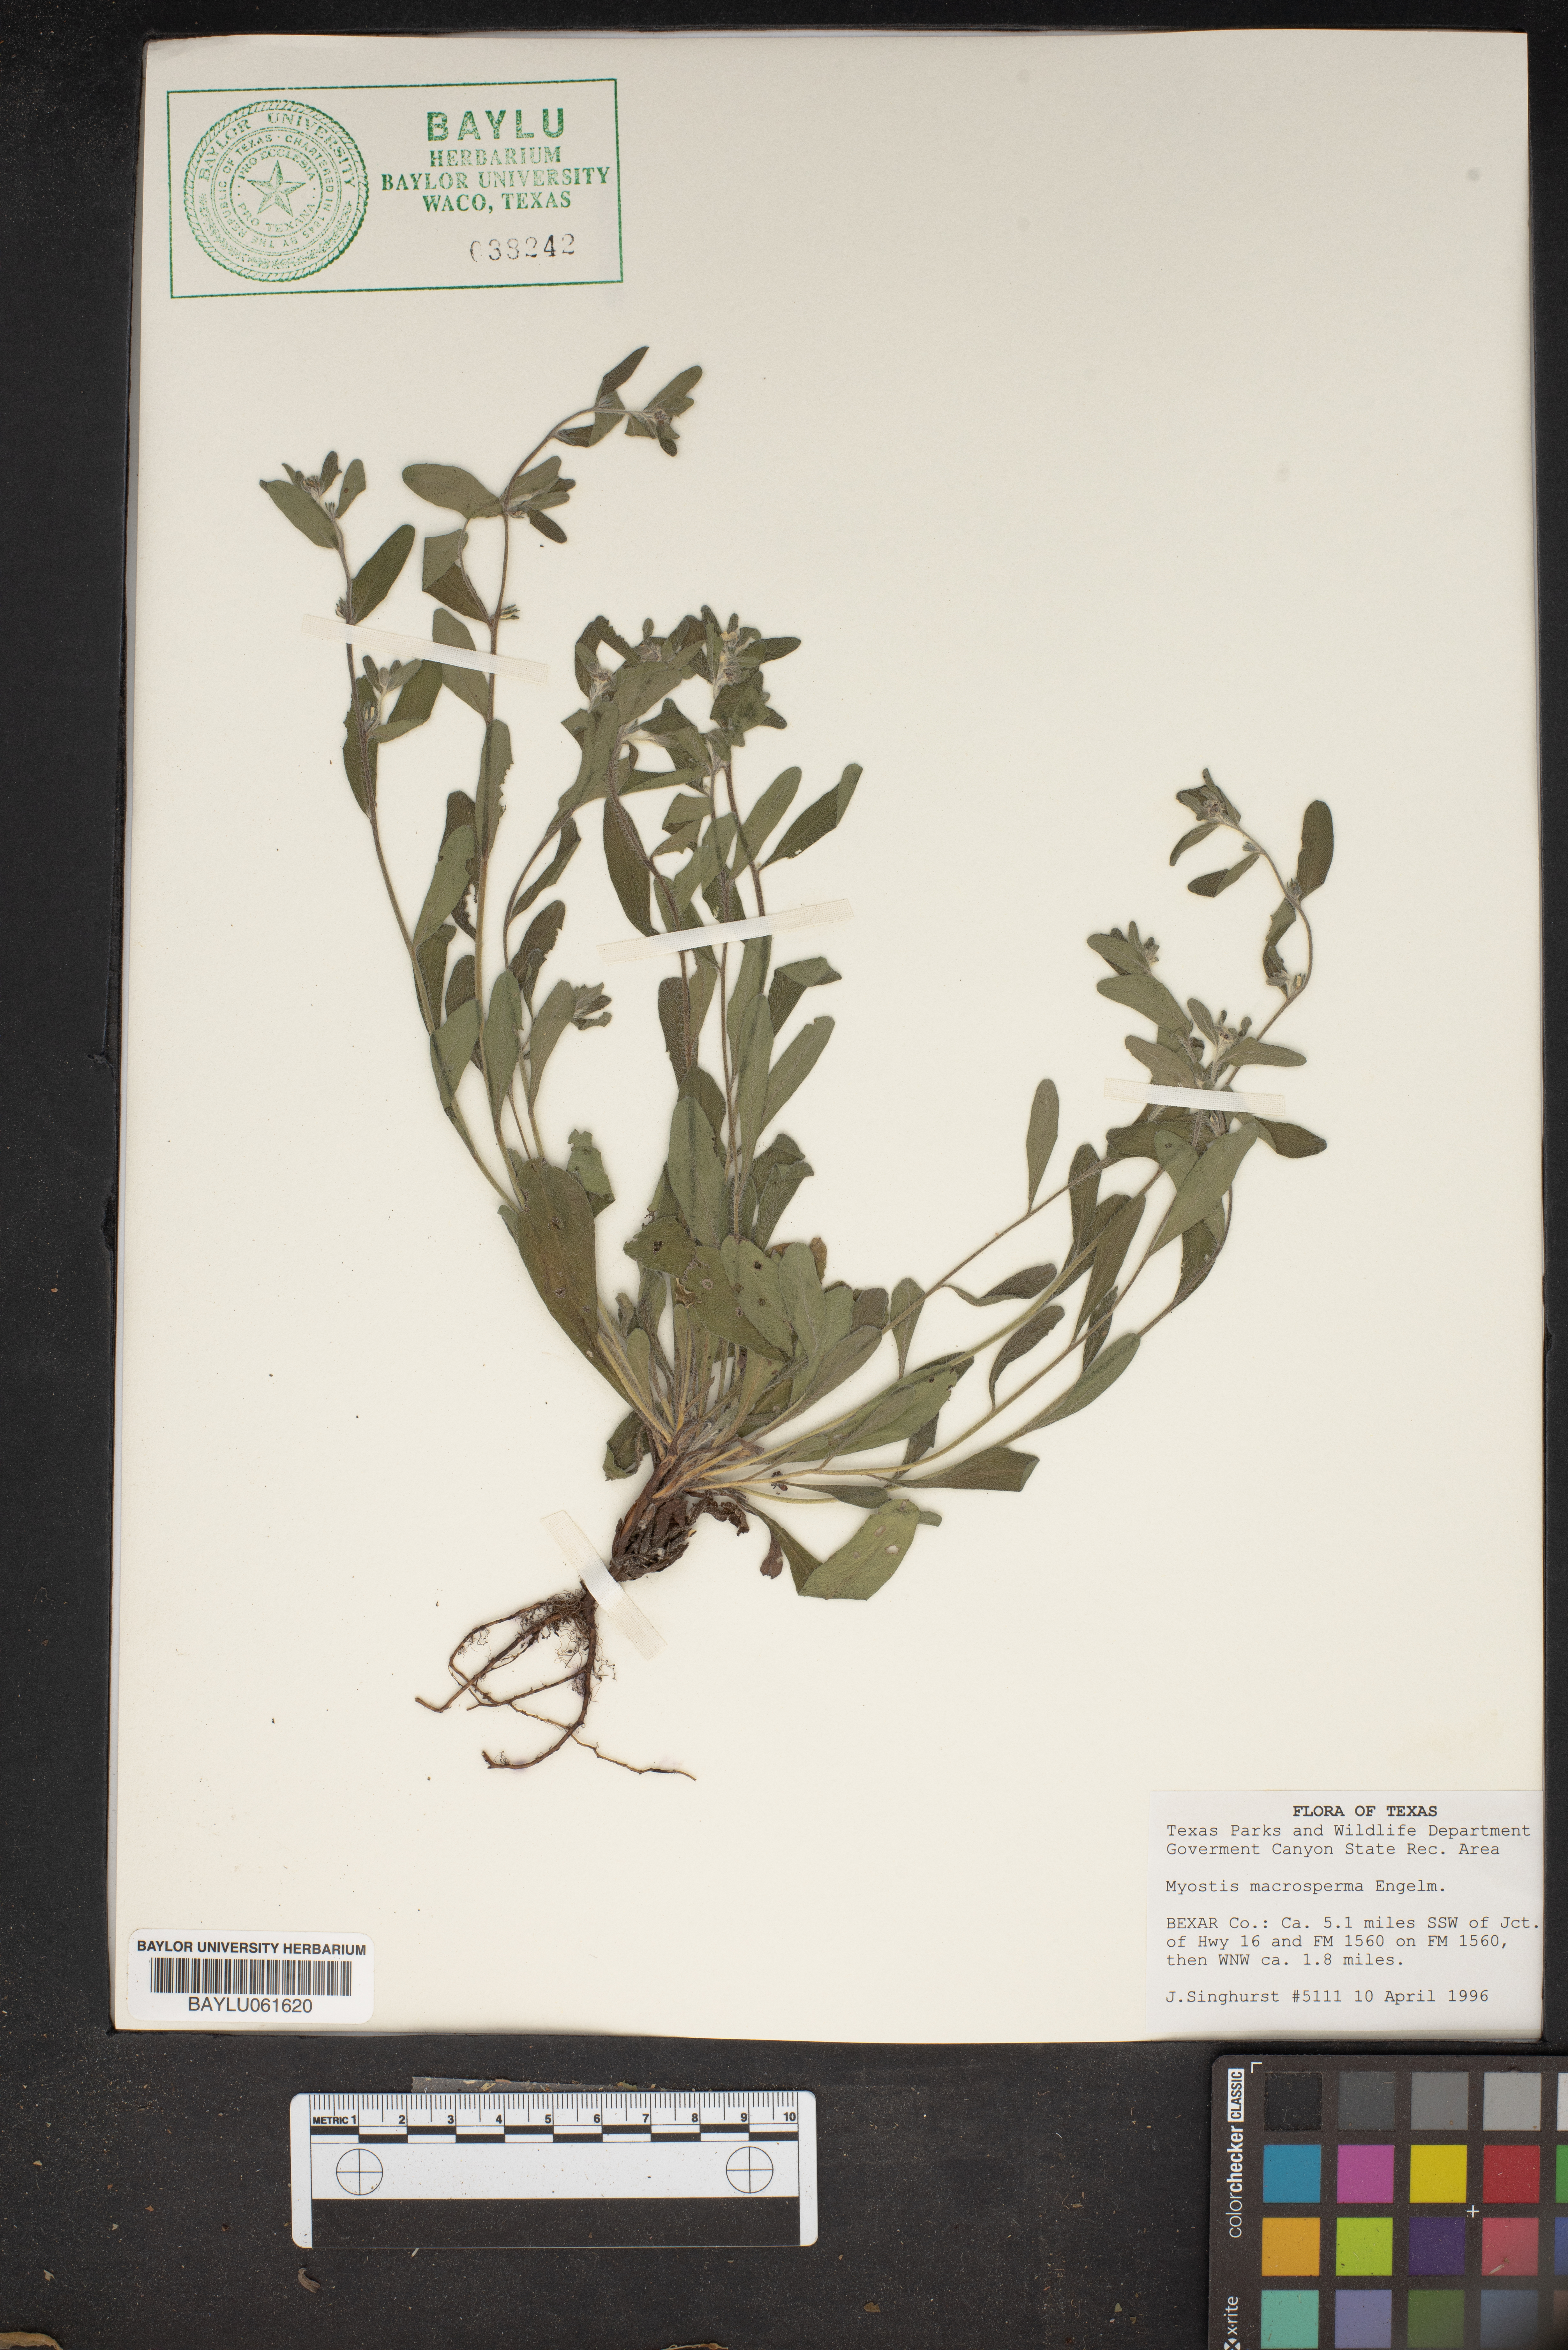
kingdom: Plantae
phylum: Tracheophyta
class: Magnoliopsida
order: Boraginales
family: Boraginaceae
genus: Myosotis
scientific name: Myosotis macrosperma
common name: Large-seed forget-me-not
